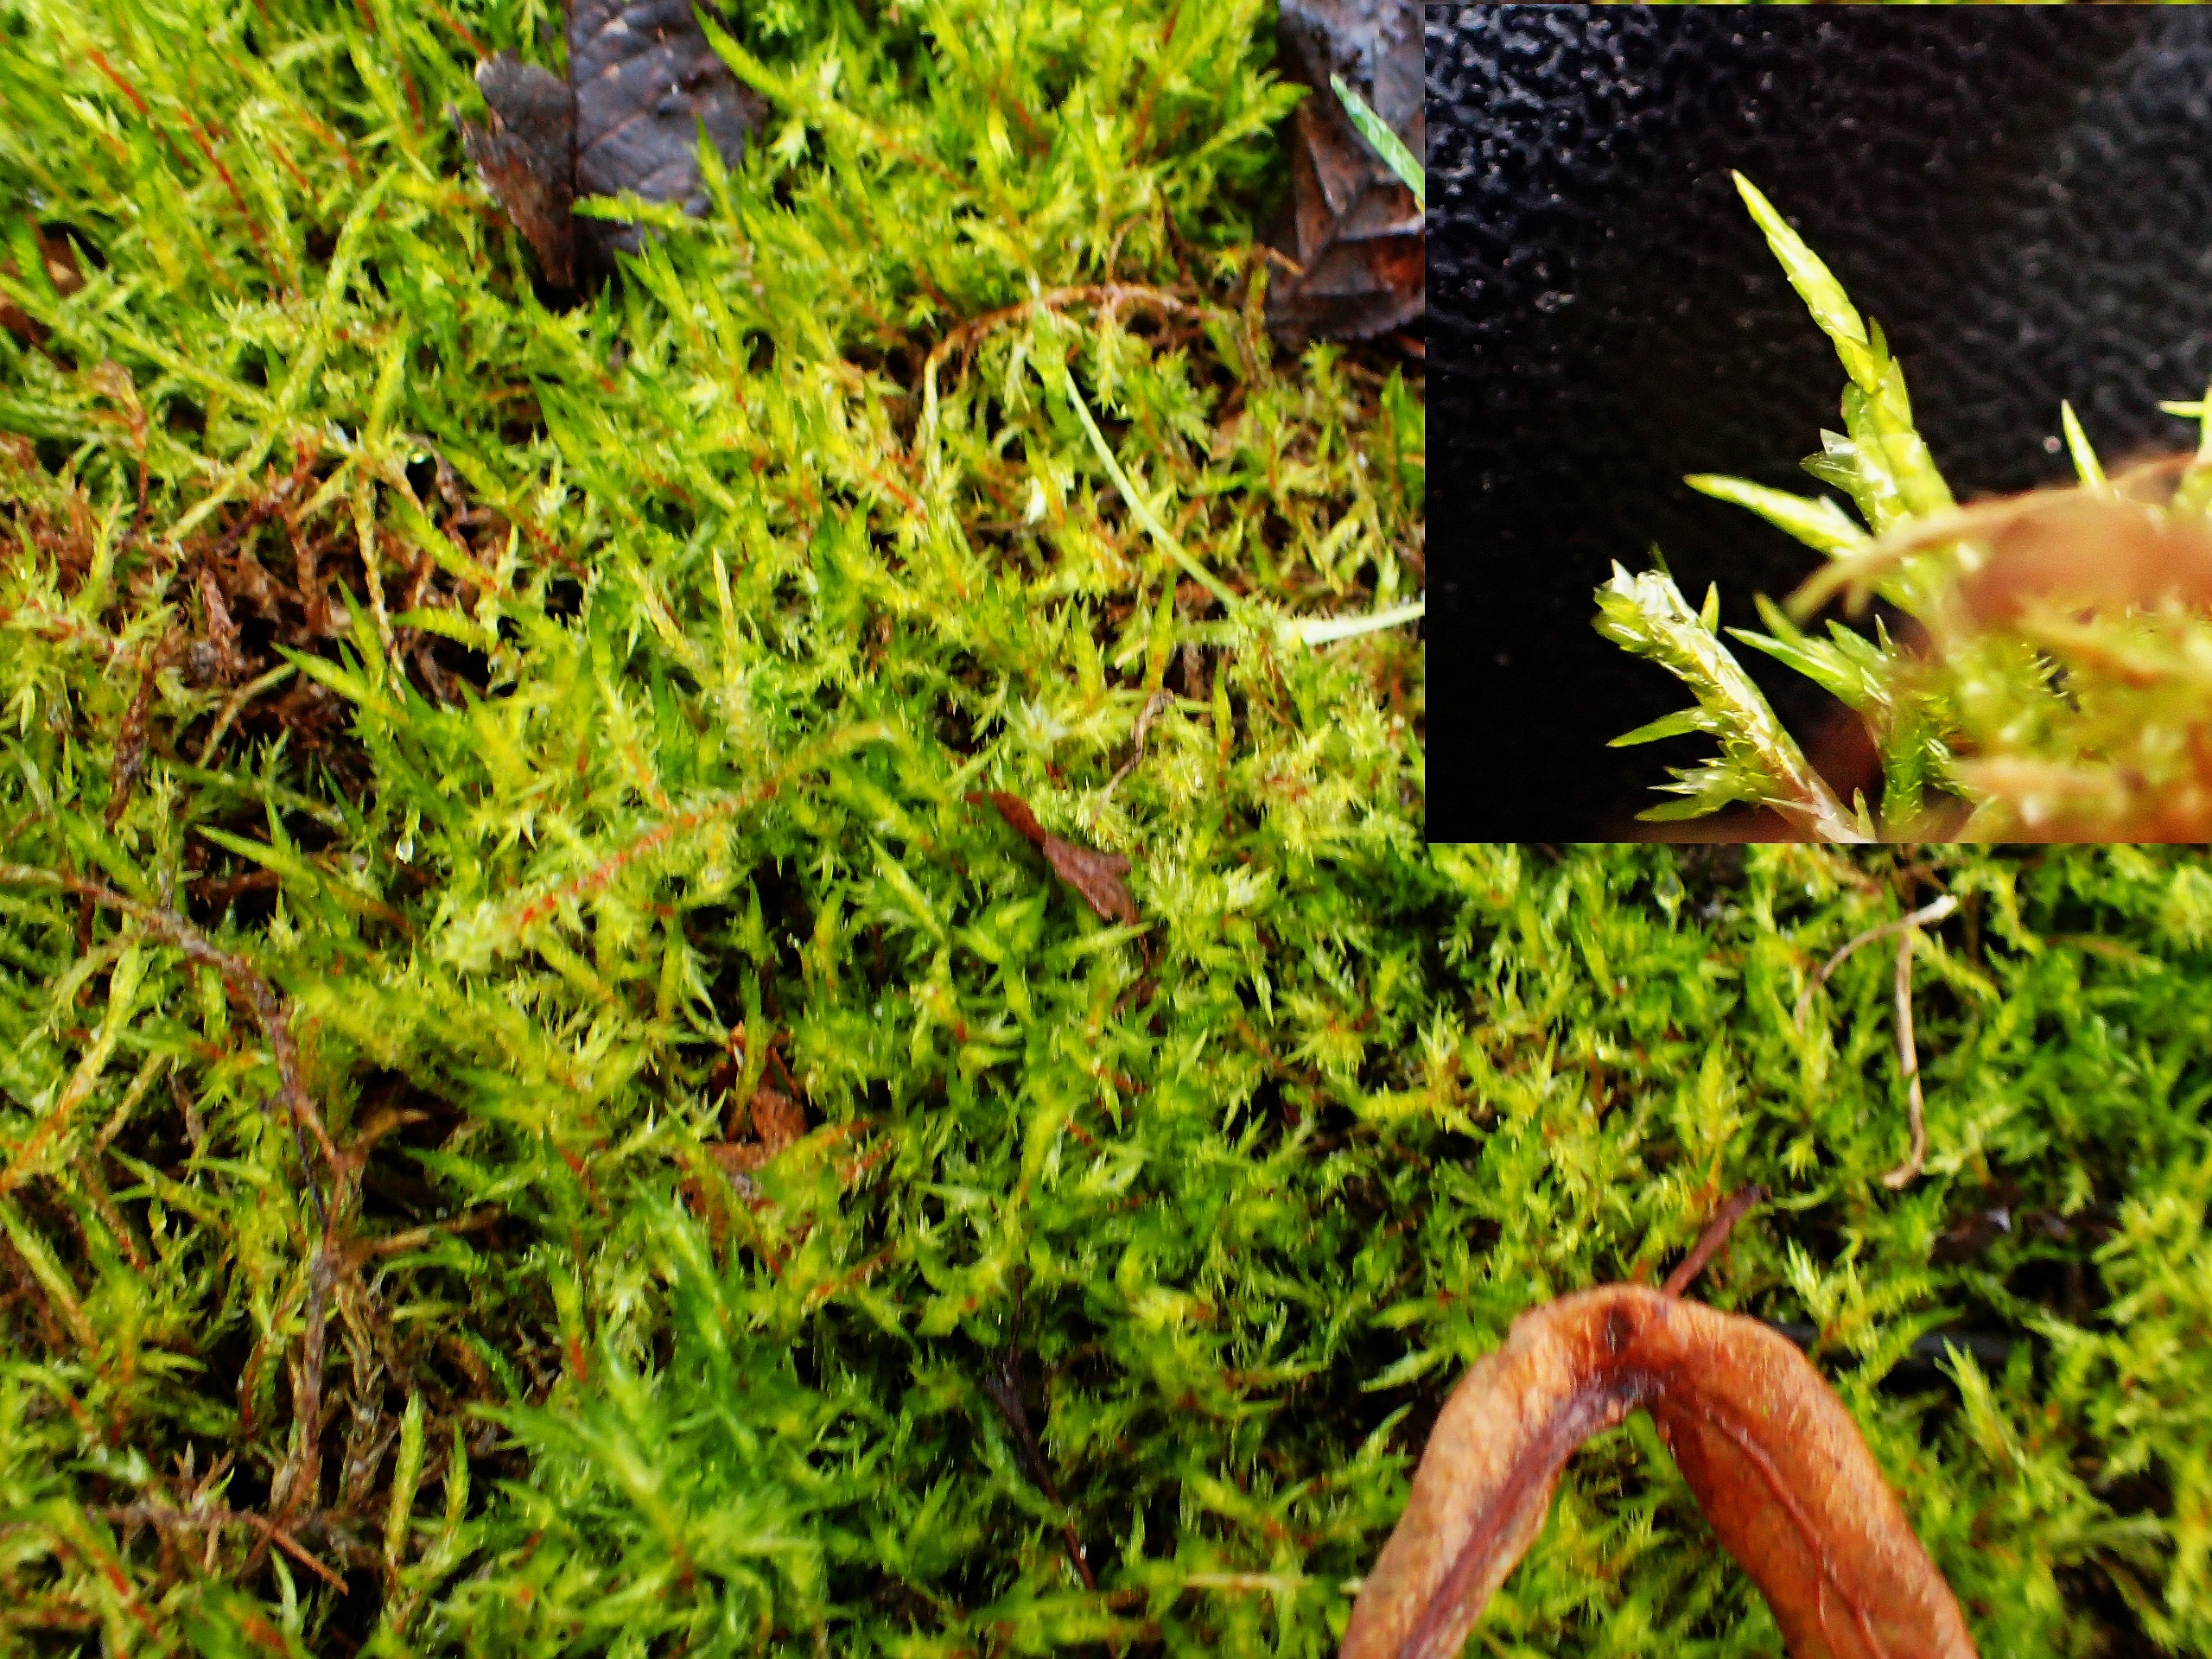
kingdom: Plantae
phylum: Bryophyta
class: Bryopsida
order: Hypnales
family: Pylaisiaceae
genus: Calliergonella
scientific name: Calliergonella cuspidata
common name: Spids spydmos
